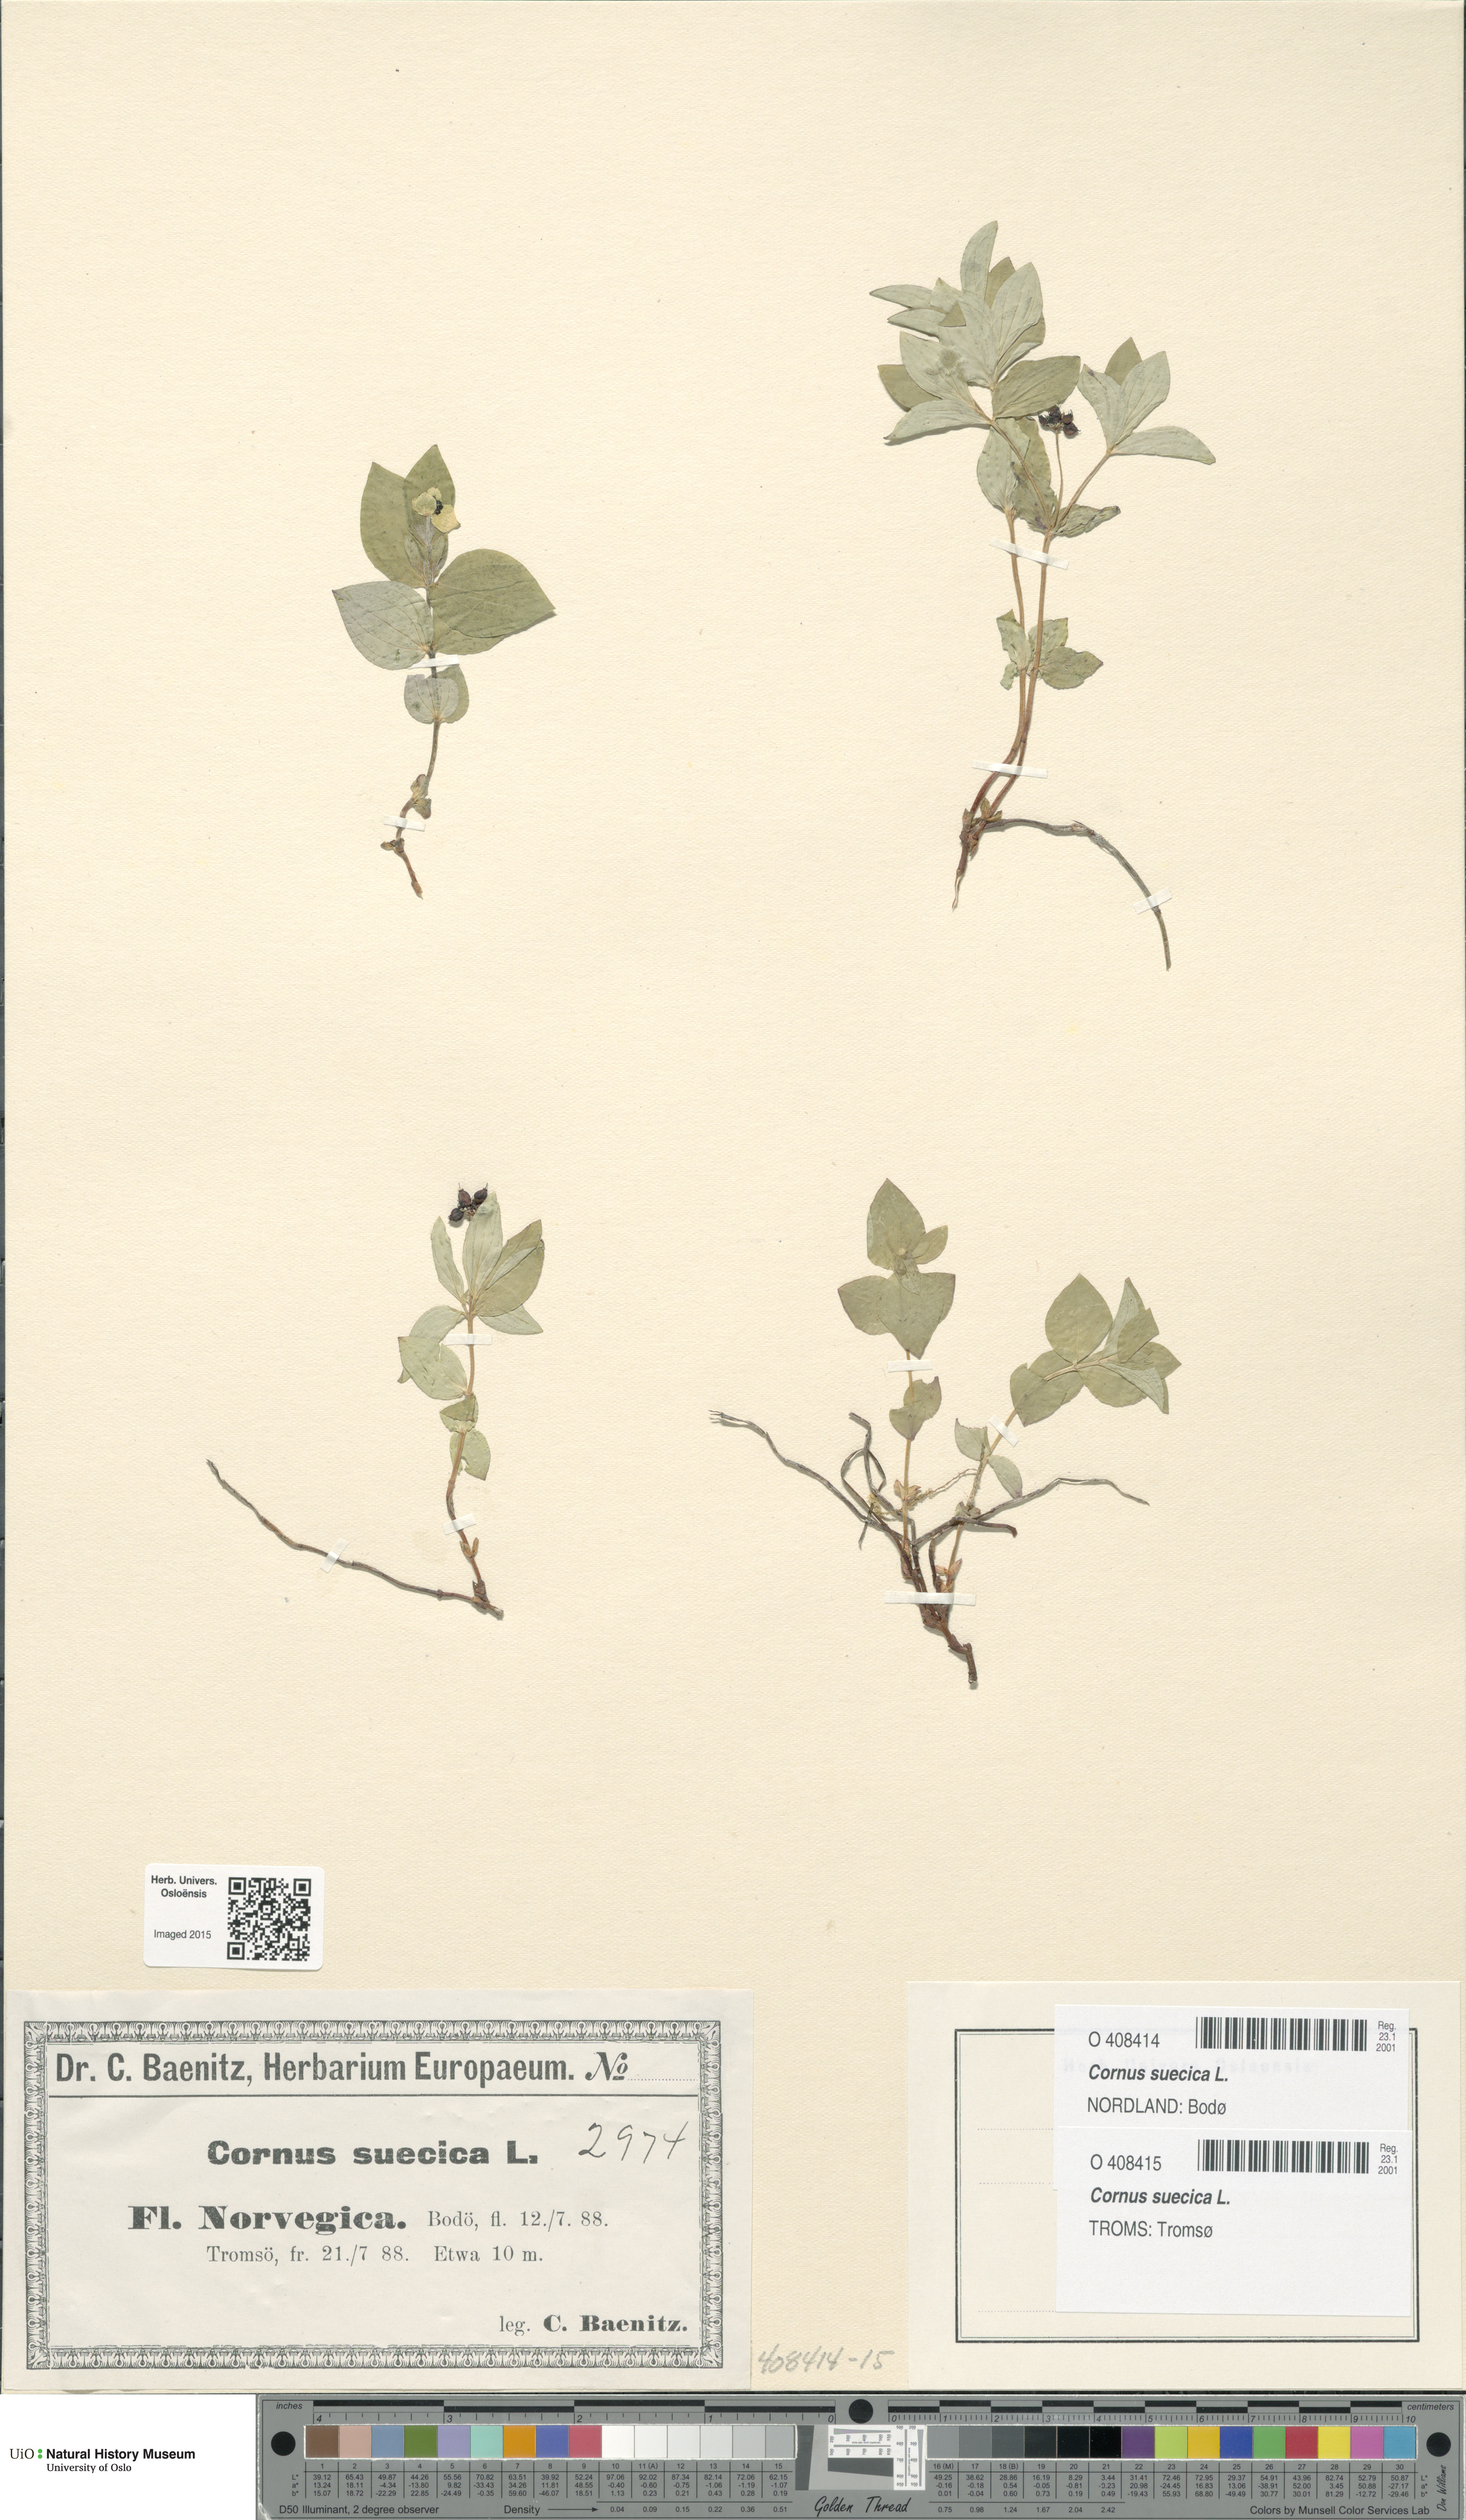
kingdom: Plantae
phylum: Tracheophyta
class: Magnoliopsida
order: Cornales
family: Cornaceae
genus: Cornus
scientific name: Cornus suecica
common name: Dwarf cornel
